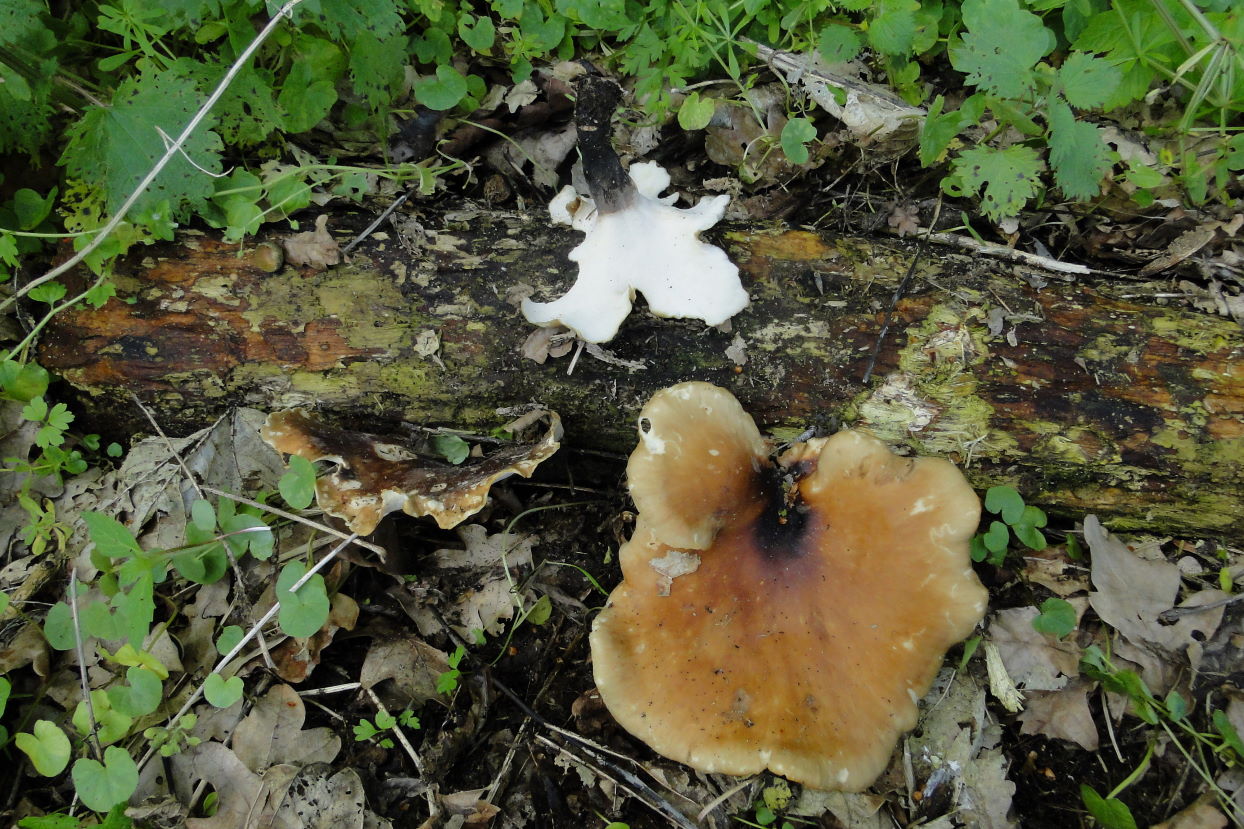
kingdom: Fungi
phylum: Basidiomycota
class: Agaricomycetes
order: Polyporales
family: Polyporaceae
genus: Picipes
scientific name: Picipes badius
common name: kastaniebrun stilkporesvamp
